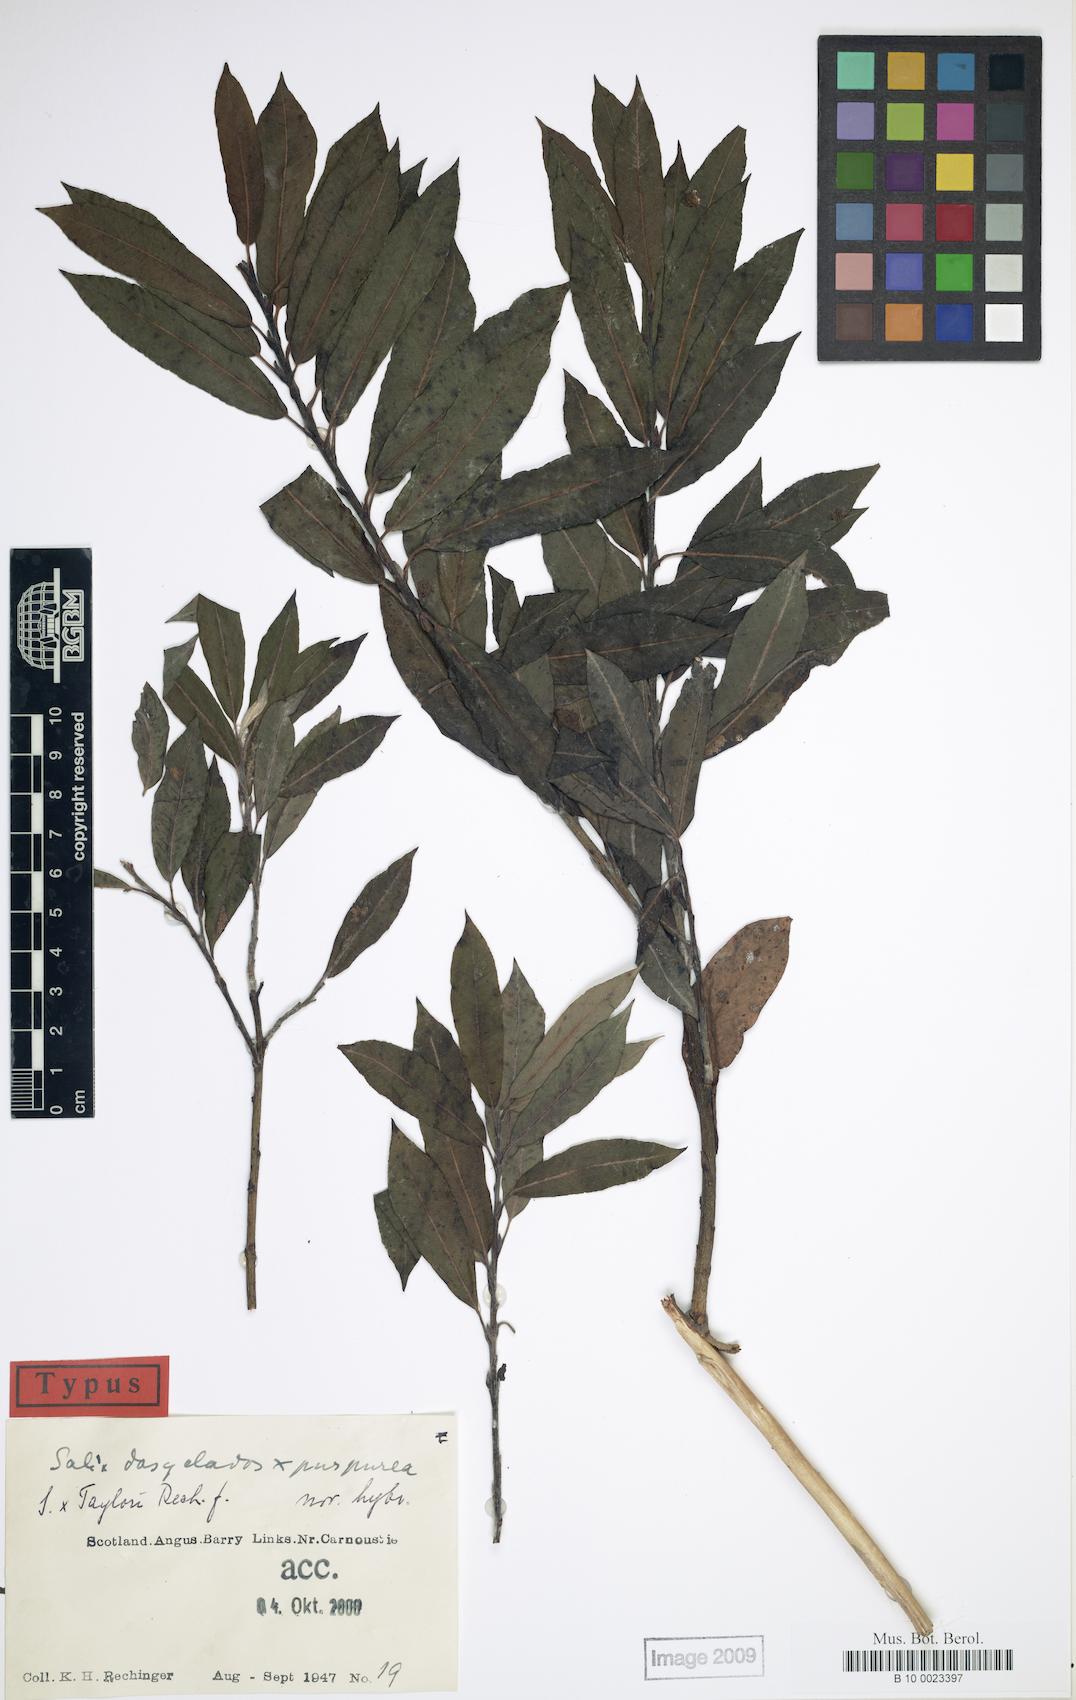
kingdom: Plantae
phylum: Tracheophyta
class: Magnoliopsida
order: Malpighiales
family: Salicaceae
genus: Salix
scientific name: Salix gmelinii
